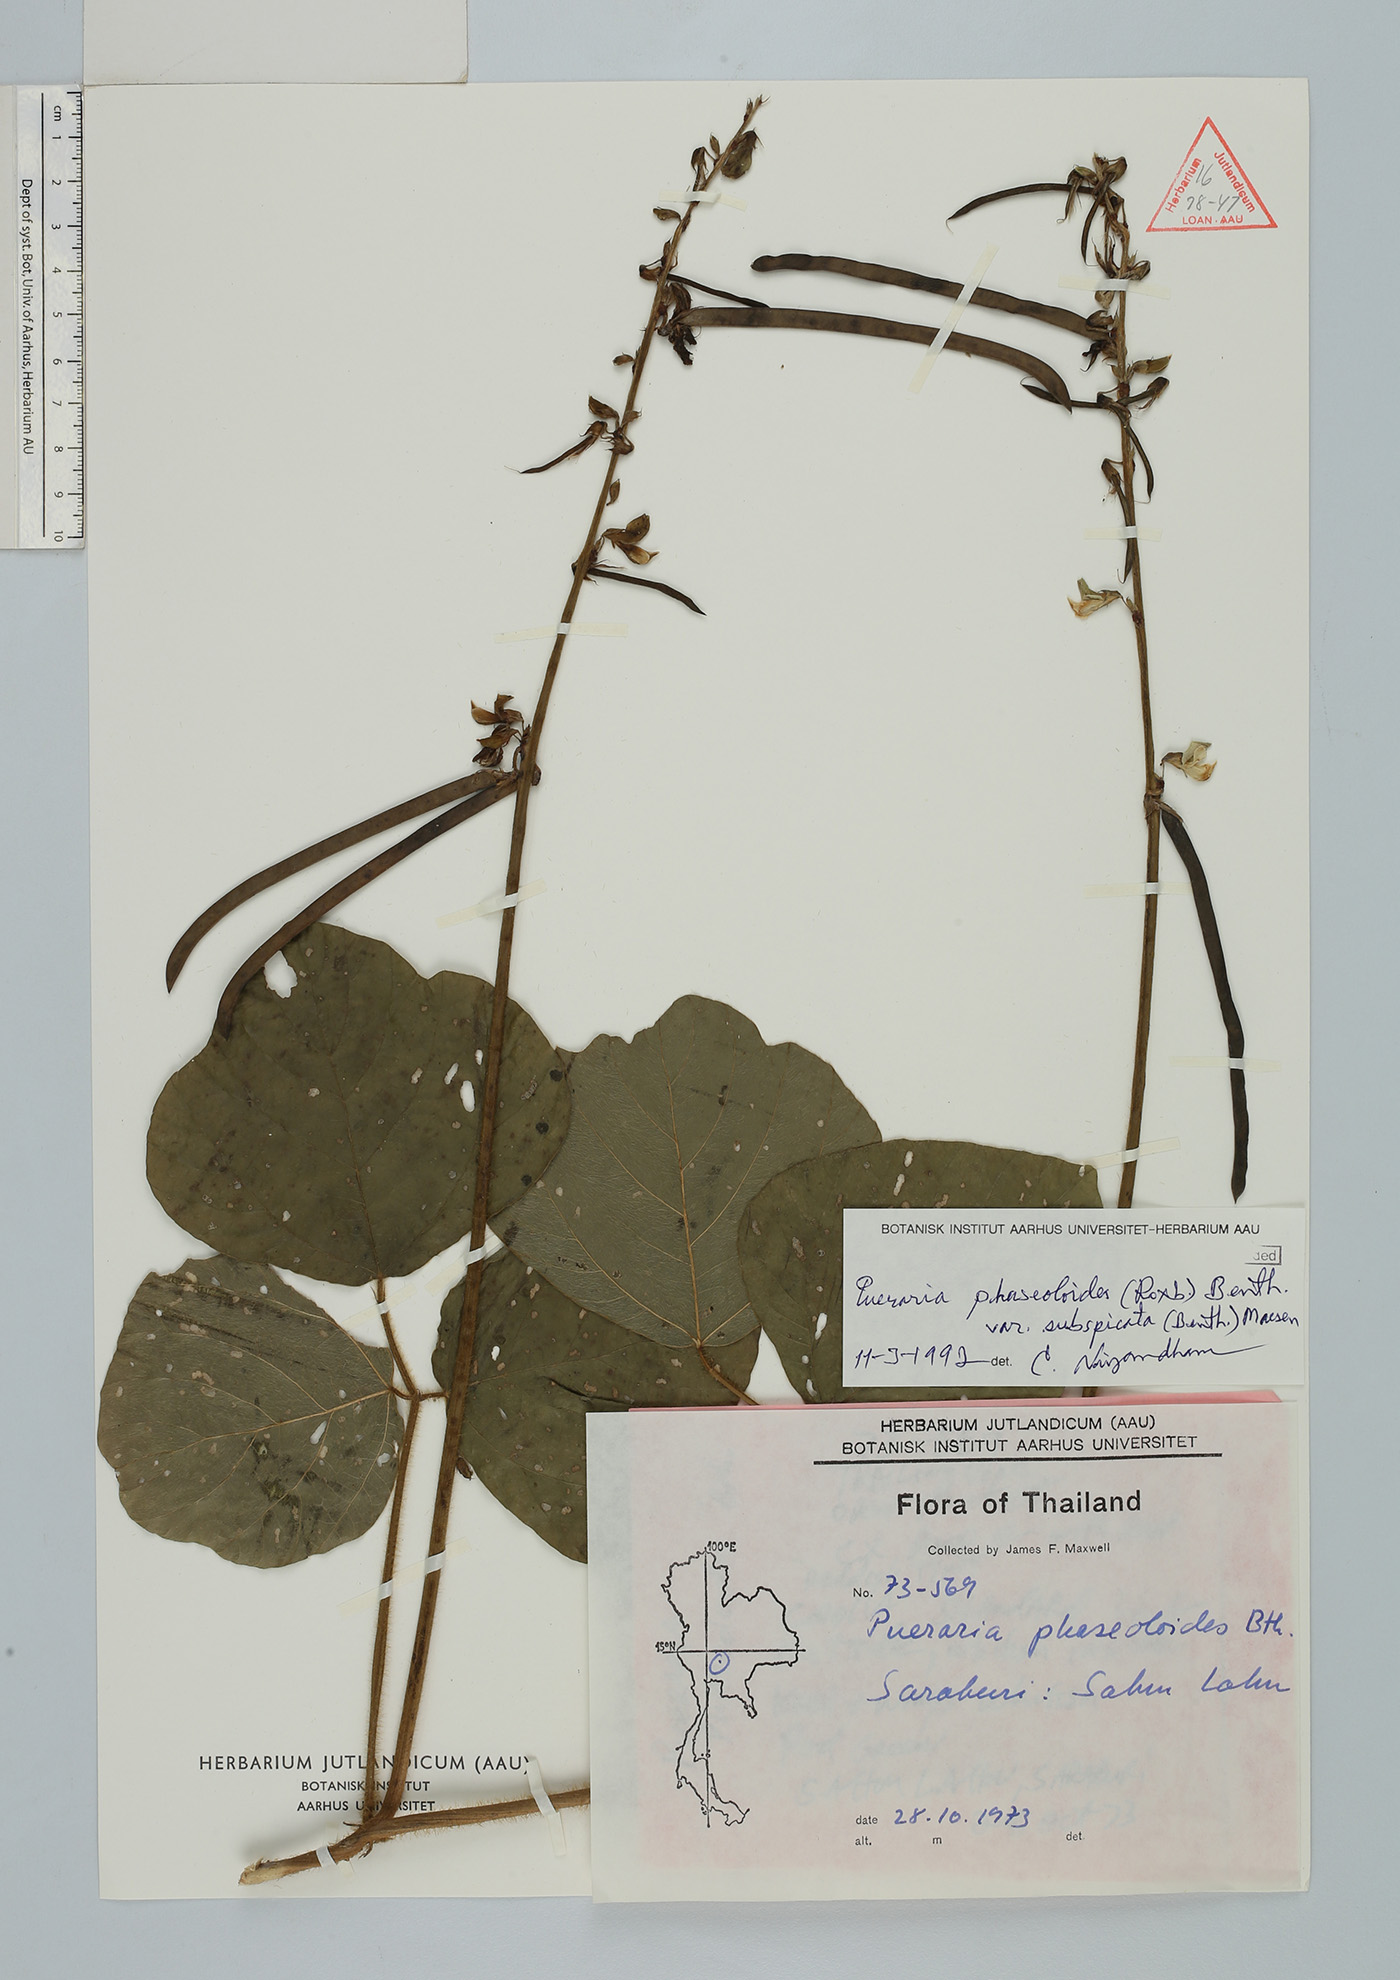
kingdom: Plantae
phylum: Tracheophyta
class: Magnoliopsida
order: Fabales
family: Fabaceae
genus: Neustanthus
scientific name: Neustanthus phaseoloides
